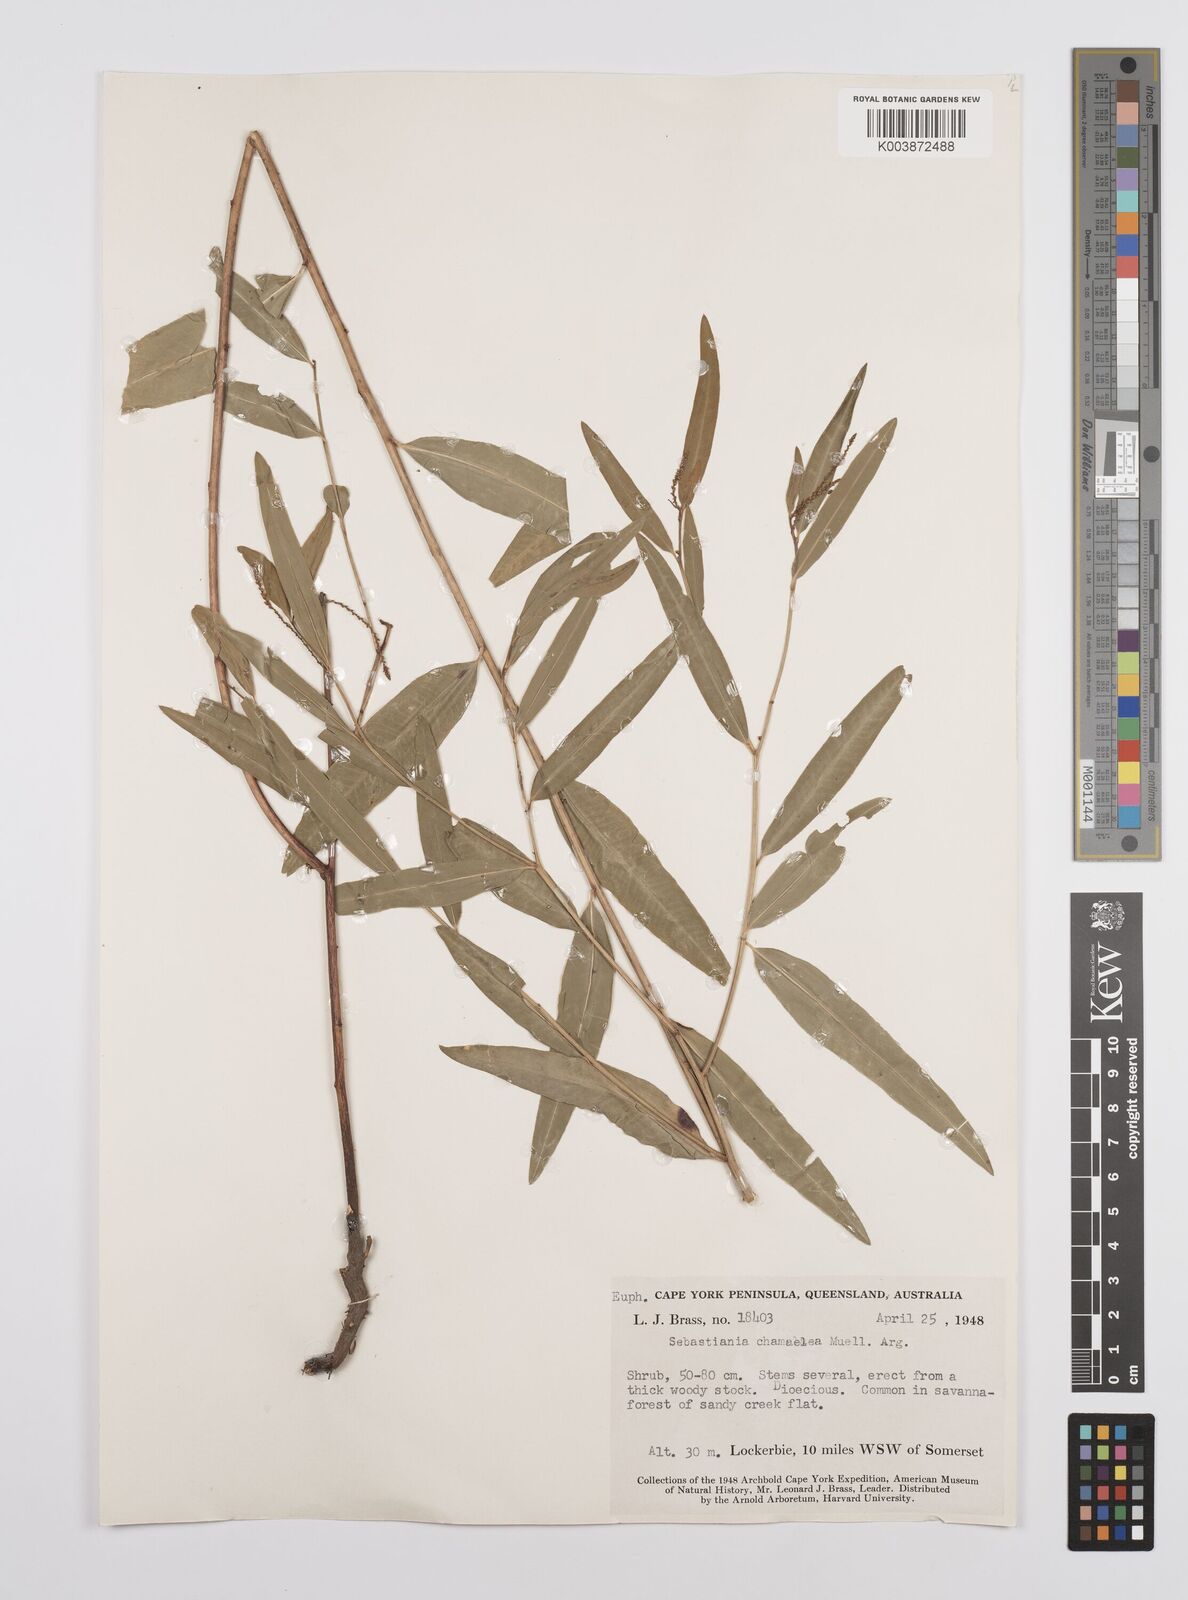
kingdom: Plantae
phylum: Tracheophyta
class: Magnoliopsida
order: Malpighiales
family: Euphorbiaceae
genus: Microstachys
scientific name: Microstachys chamaelea
